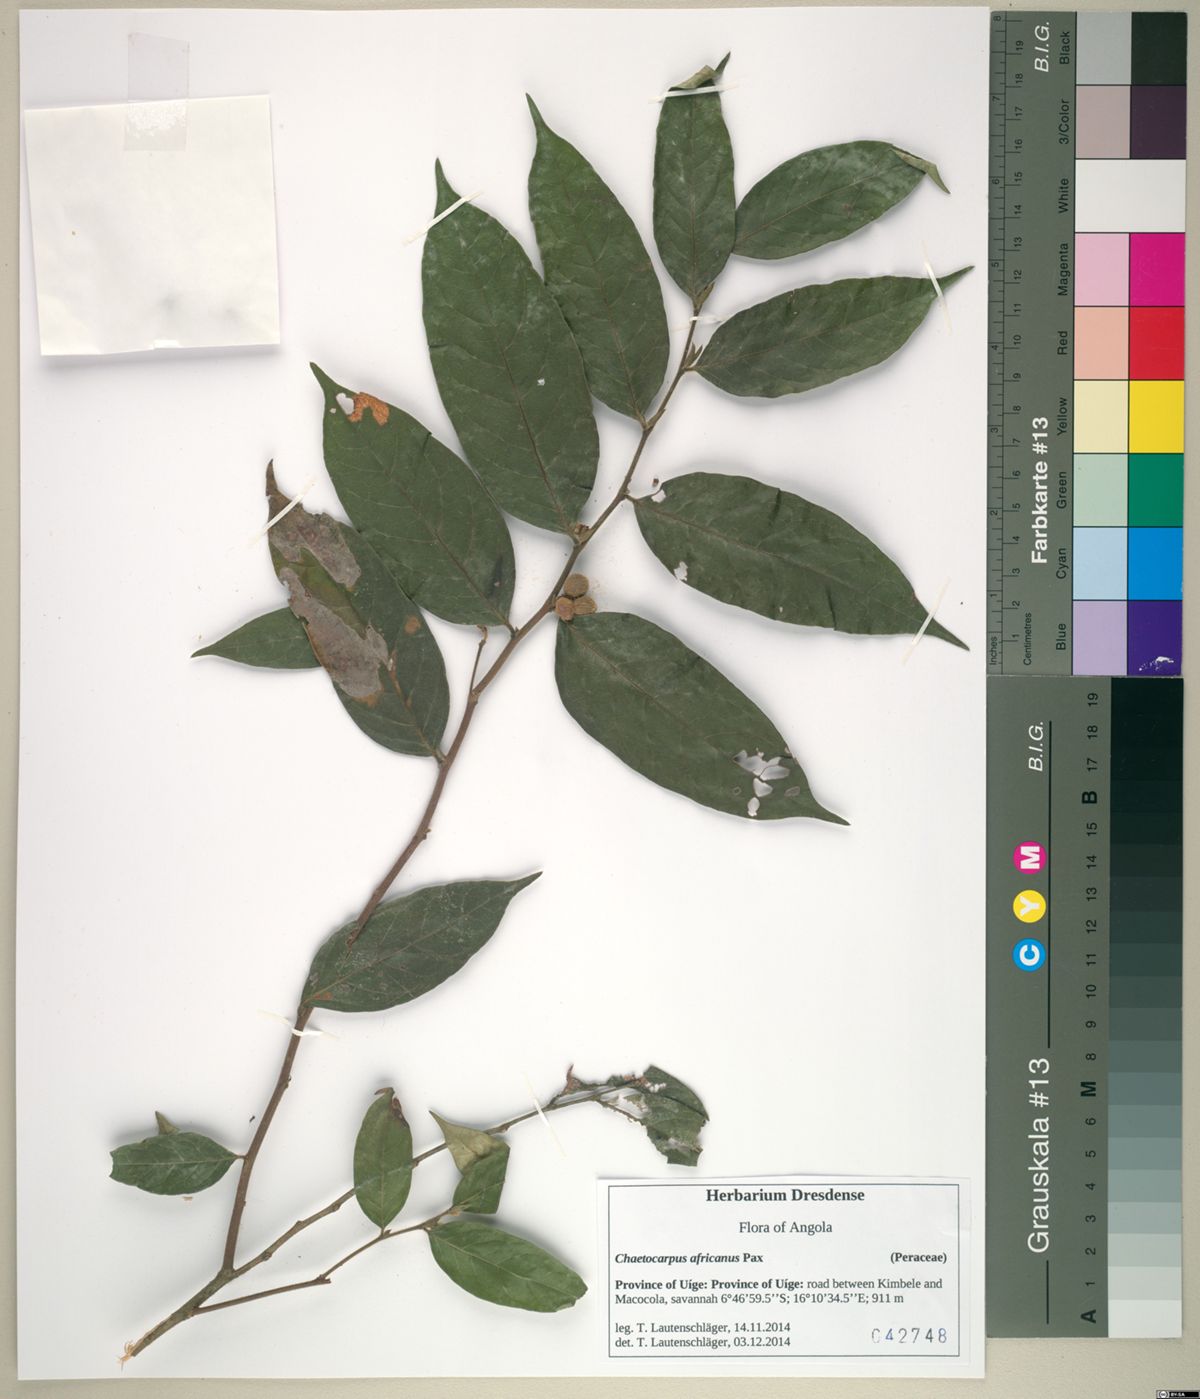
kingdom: Plantae
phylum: Tracheophyta
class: Magnoliopsida
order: Malpighiales
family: Peraceae
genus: Chaetocarpus
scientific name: Chaetocarpus africanus
